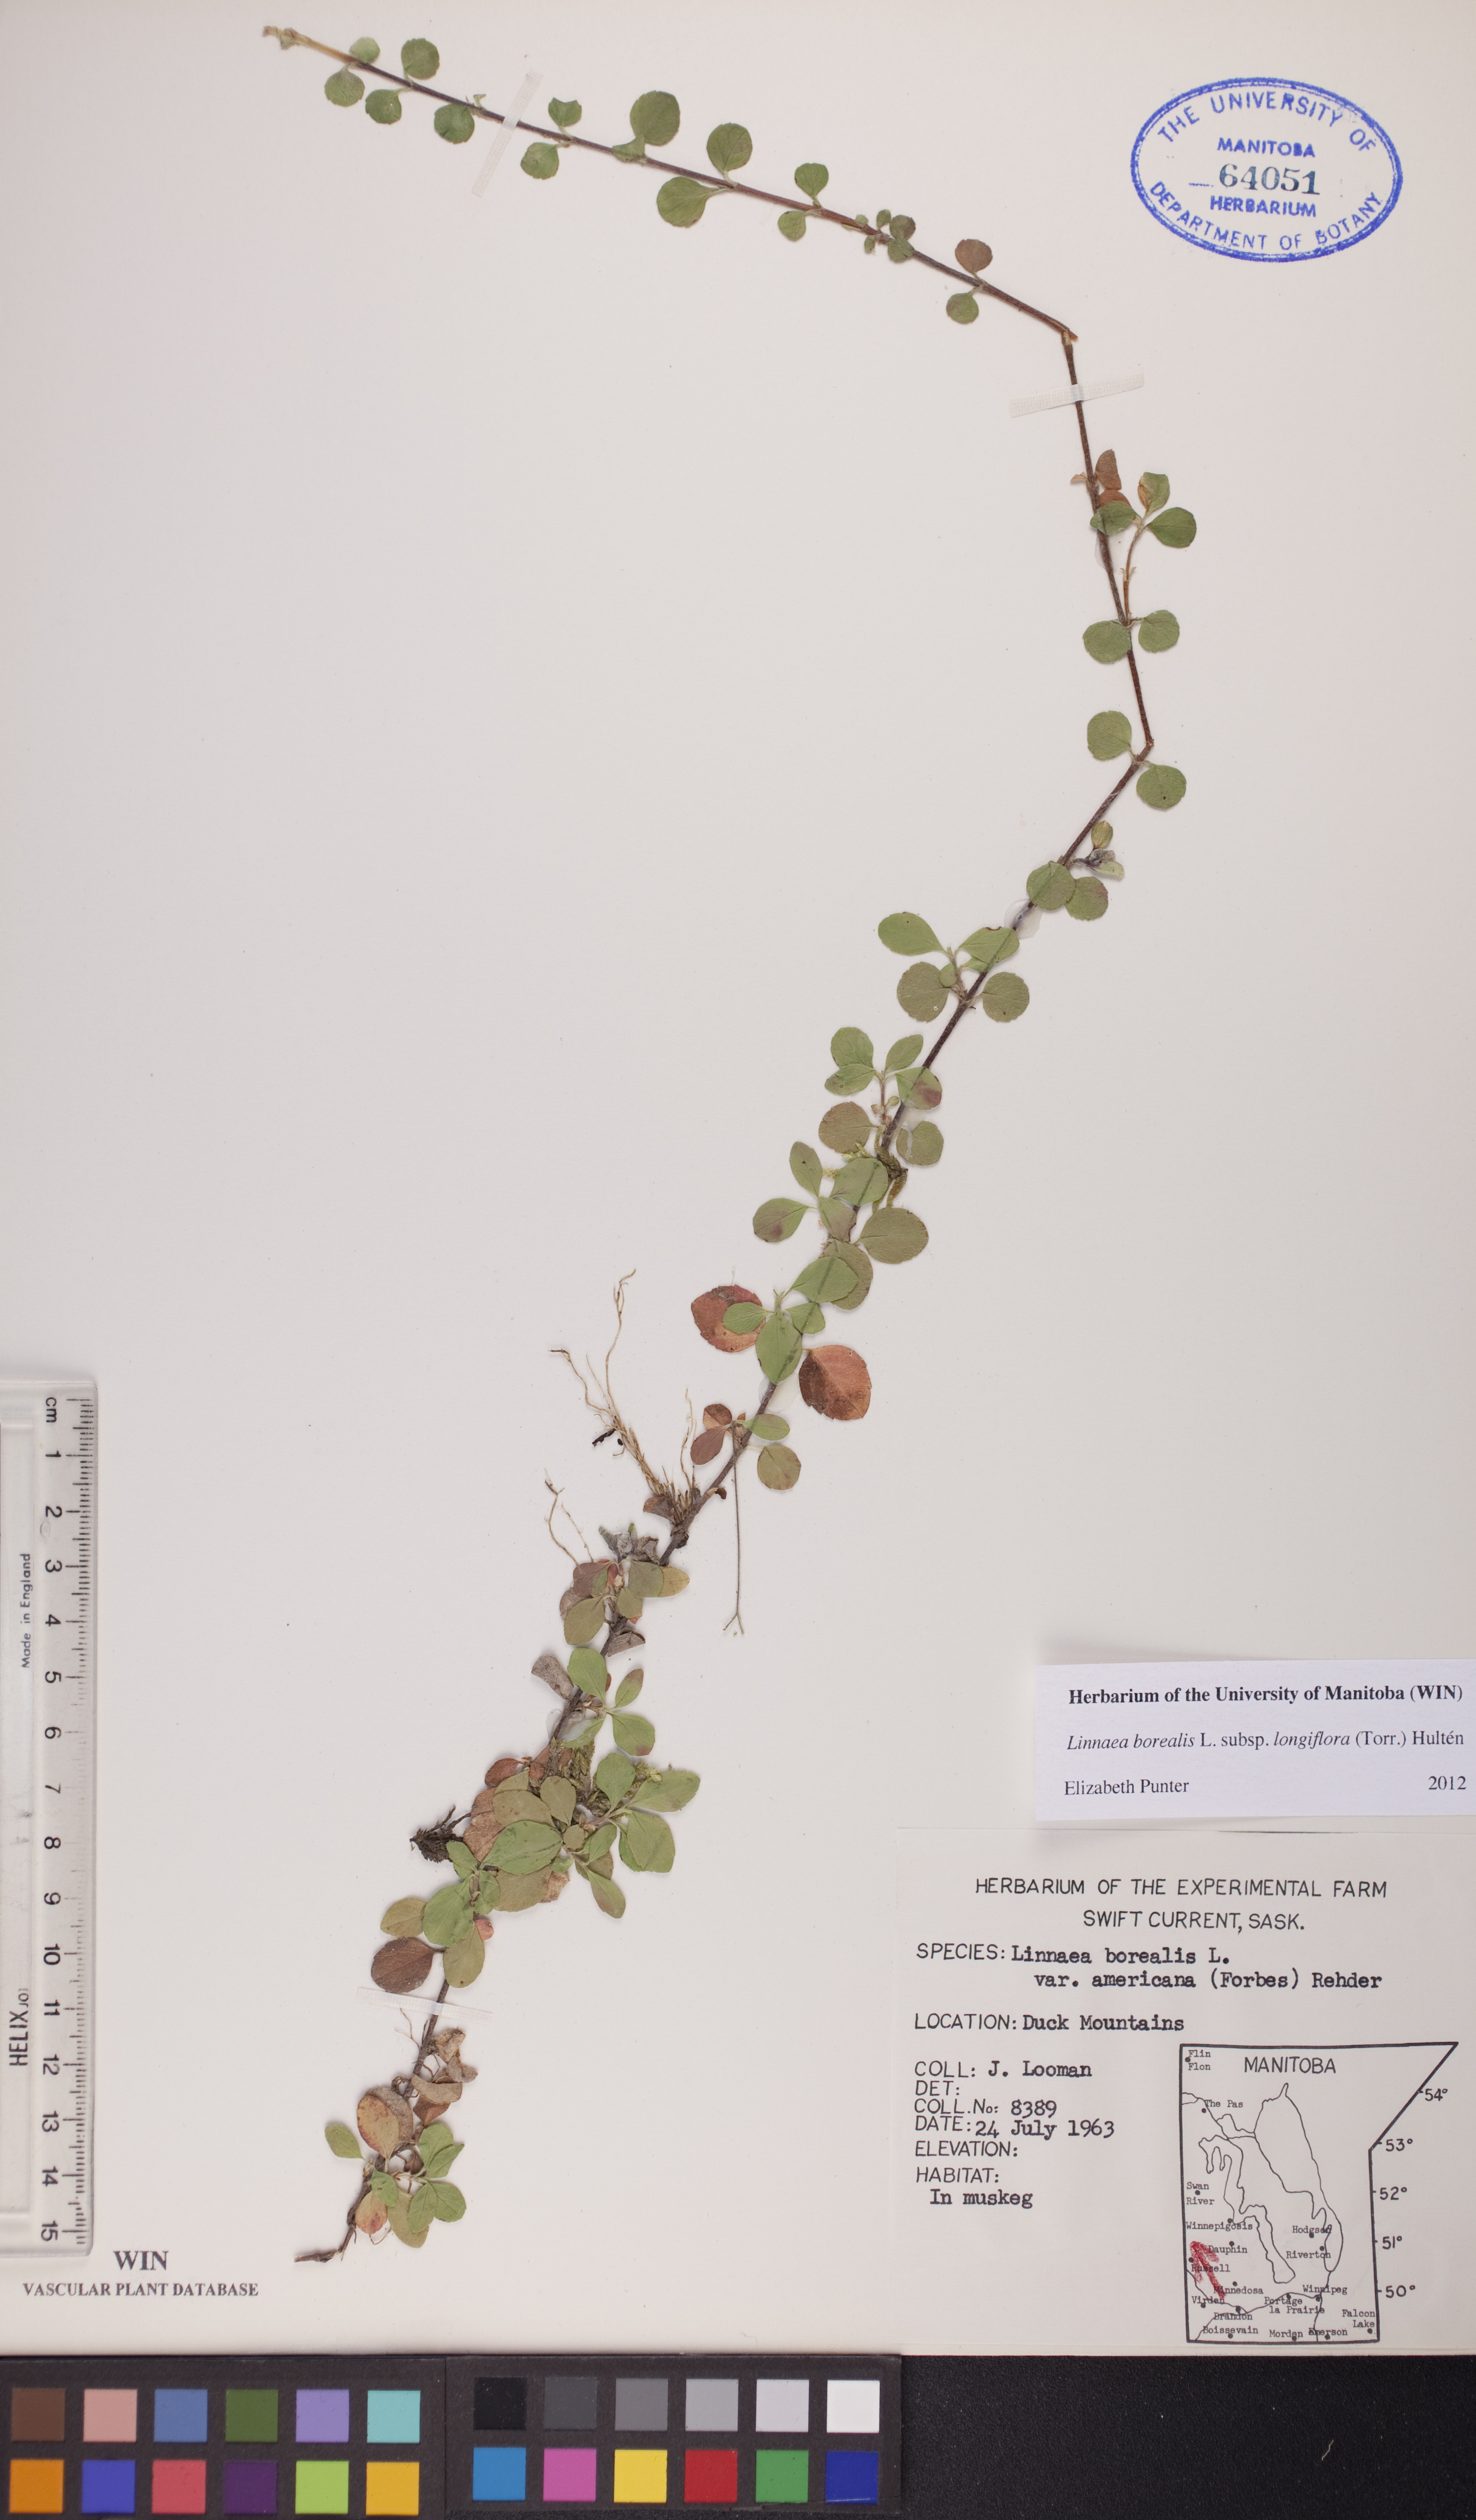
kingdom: Plantae
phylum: Tracheophyta
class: Magnoliopsida
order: Dipsacales
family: Caprifoliaceae
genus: Linnaea
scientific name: Linnaea borealis
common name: Twinflower
